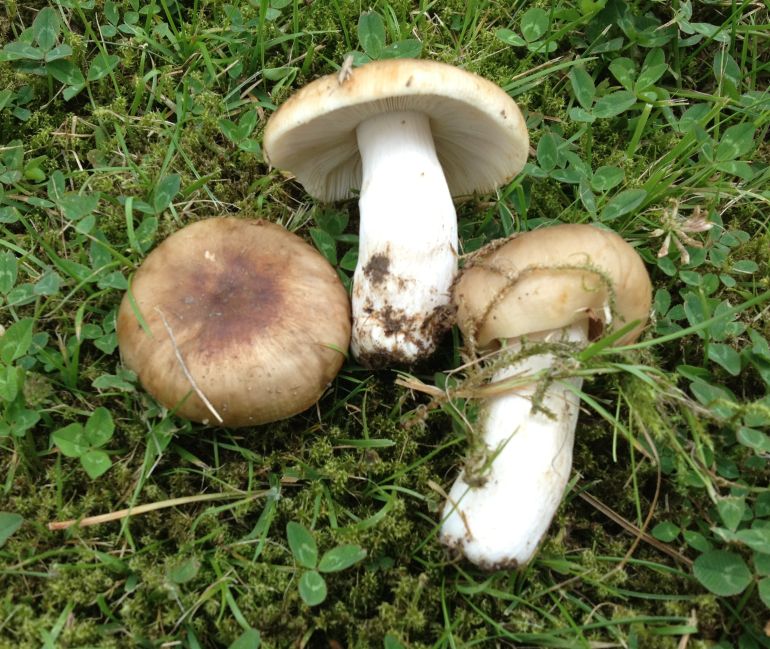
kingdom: Fungi
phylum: Basidiomycota
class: Agaricomycetes
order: Russulales
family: Russulaceae
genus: Russula
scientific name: Russula cessans
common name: fyrre-skørhat
